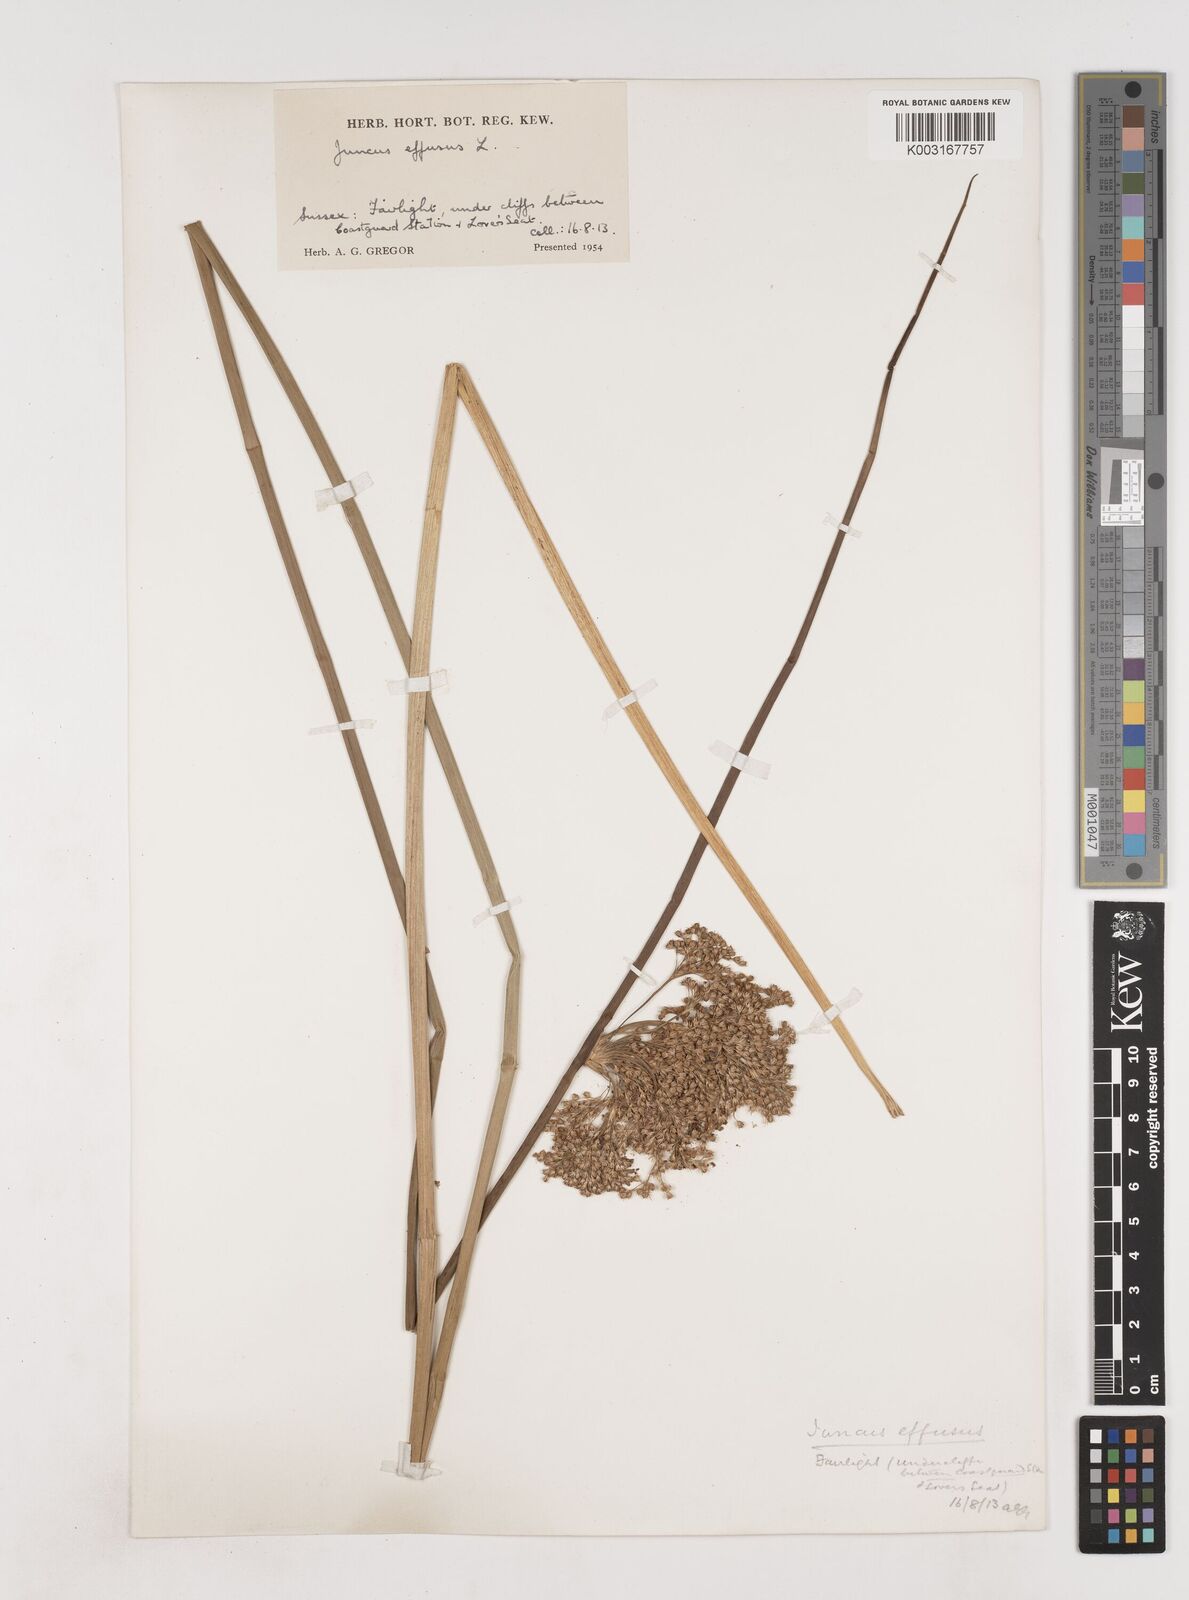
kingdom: Plantae
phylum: Tracheophyta
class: Liliopsida
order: Poales
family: Juncaceae
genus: Juncus
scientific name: Juncus effusus
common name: Soft rush
